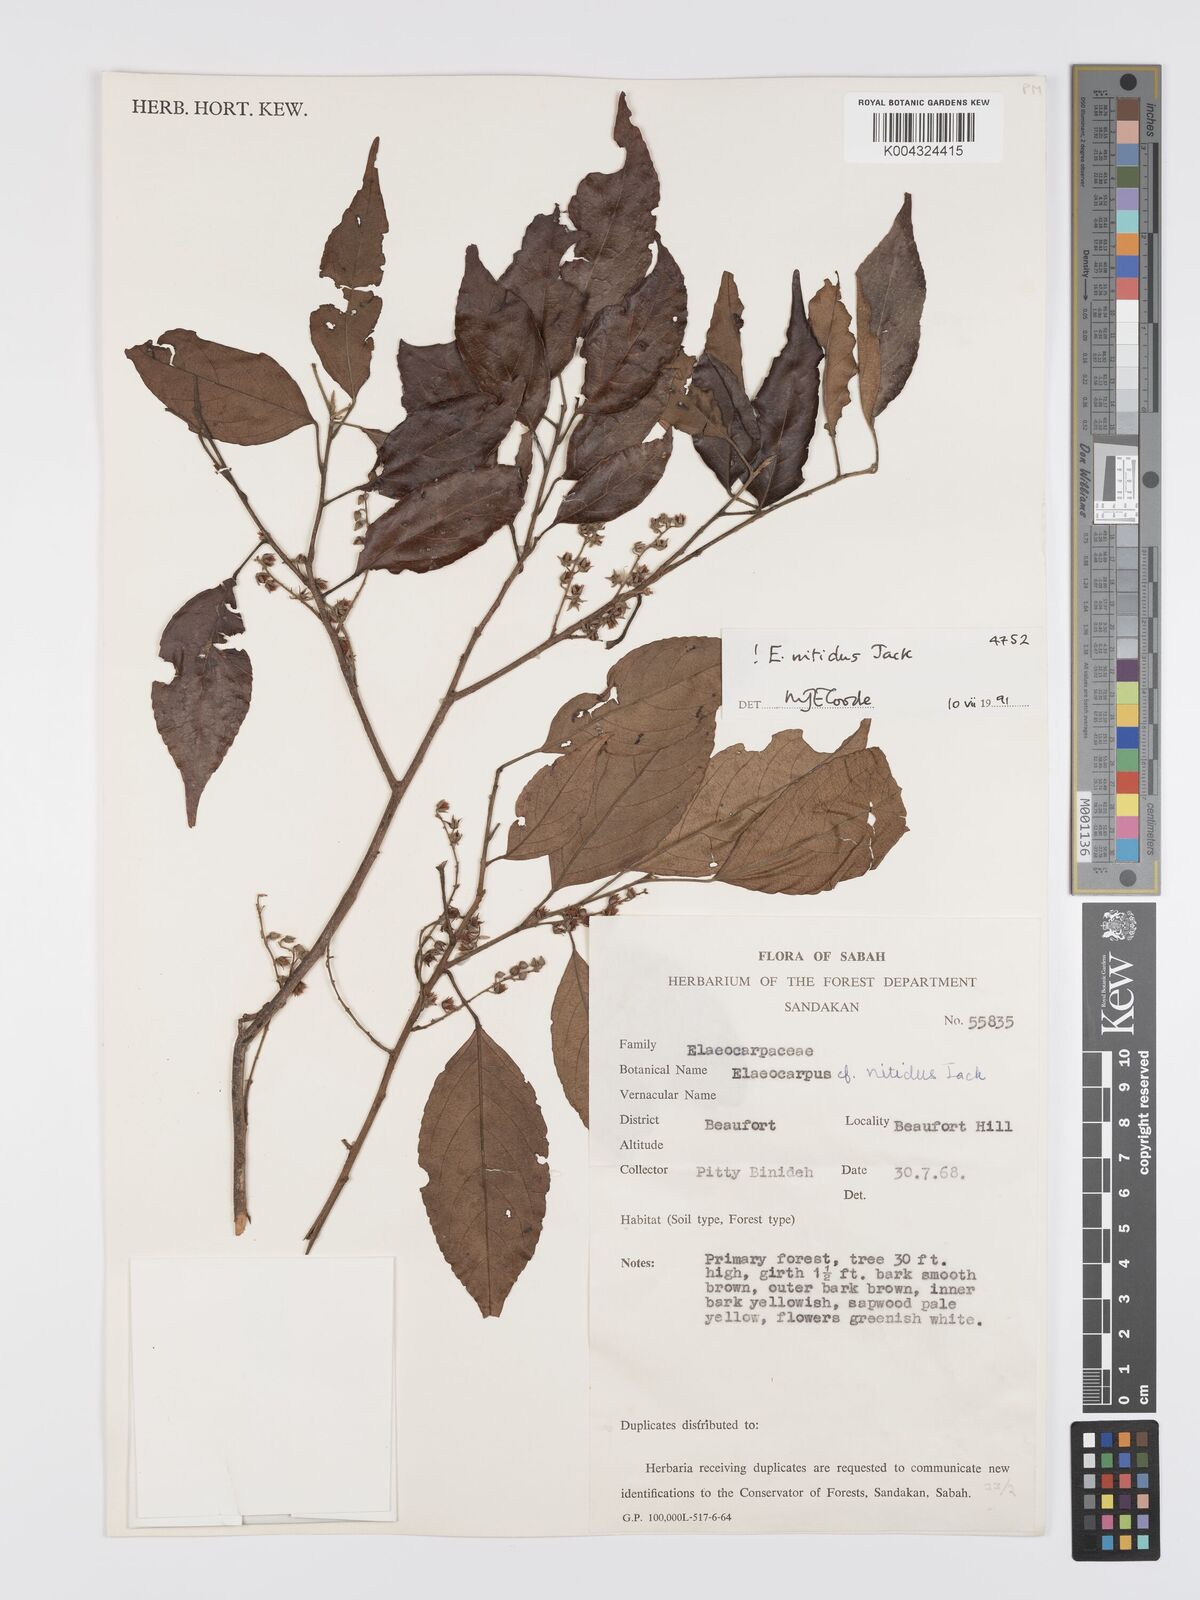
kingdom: Plantae
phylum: Tracheophyta
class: Magnoliopsida
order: Oxalidales
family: Elaeocarpaceae
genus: Elaeocarpus
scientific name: Elaeocarpus nitidus
